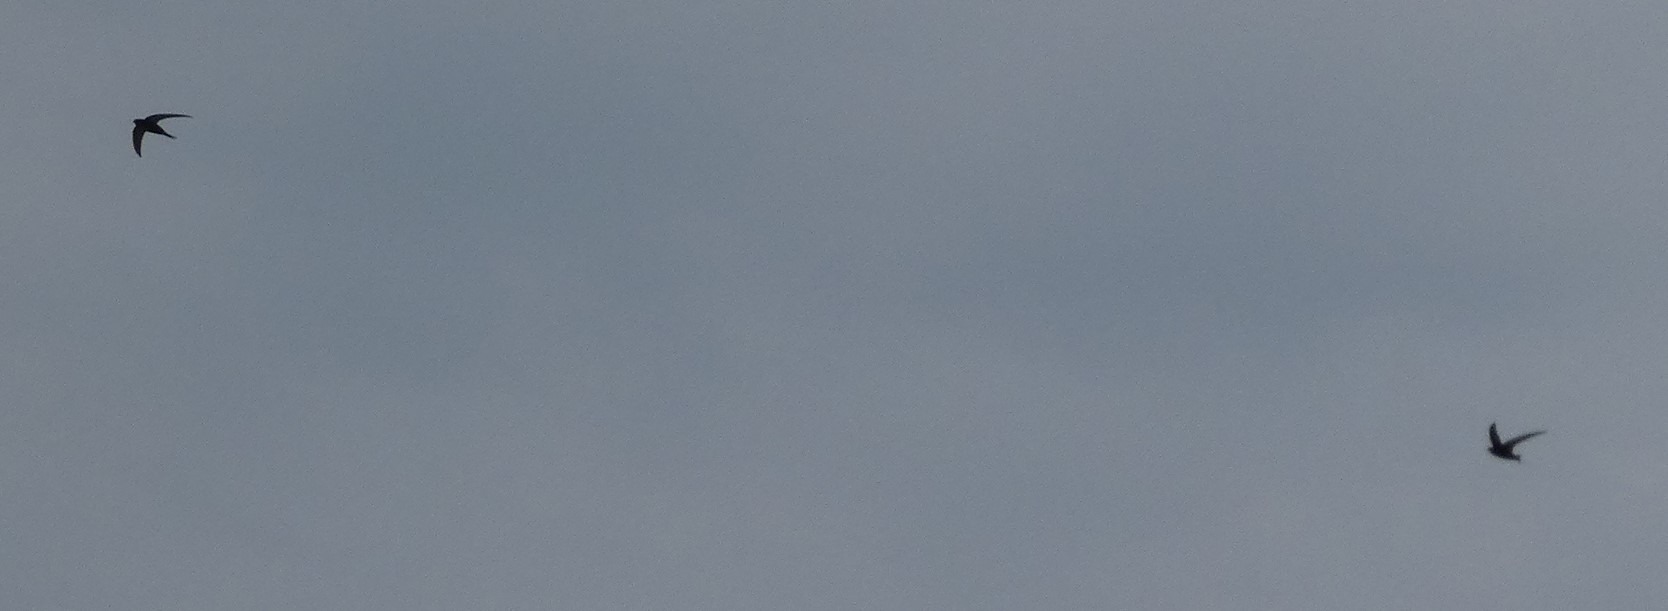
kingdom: Animalia
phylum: Chordata
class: Aves
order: Apodiformes
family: Apodidae
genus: Apus
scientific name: Apus apus
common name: Mursejler
